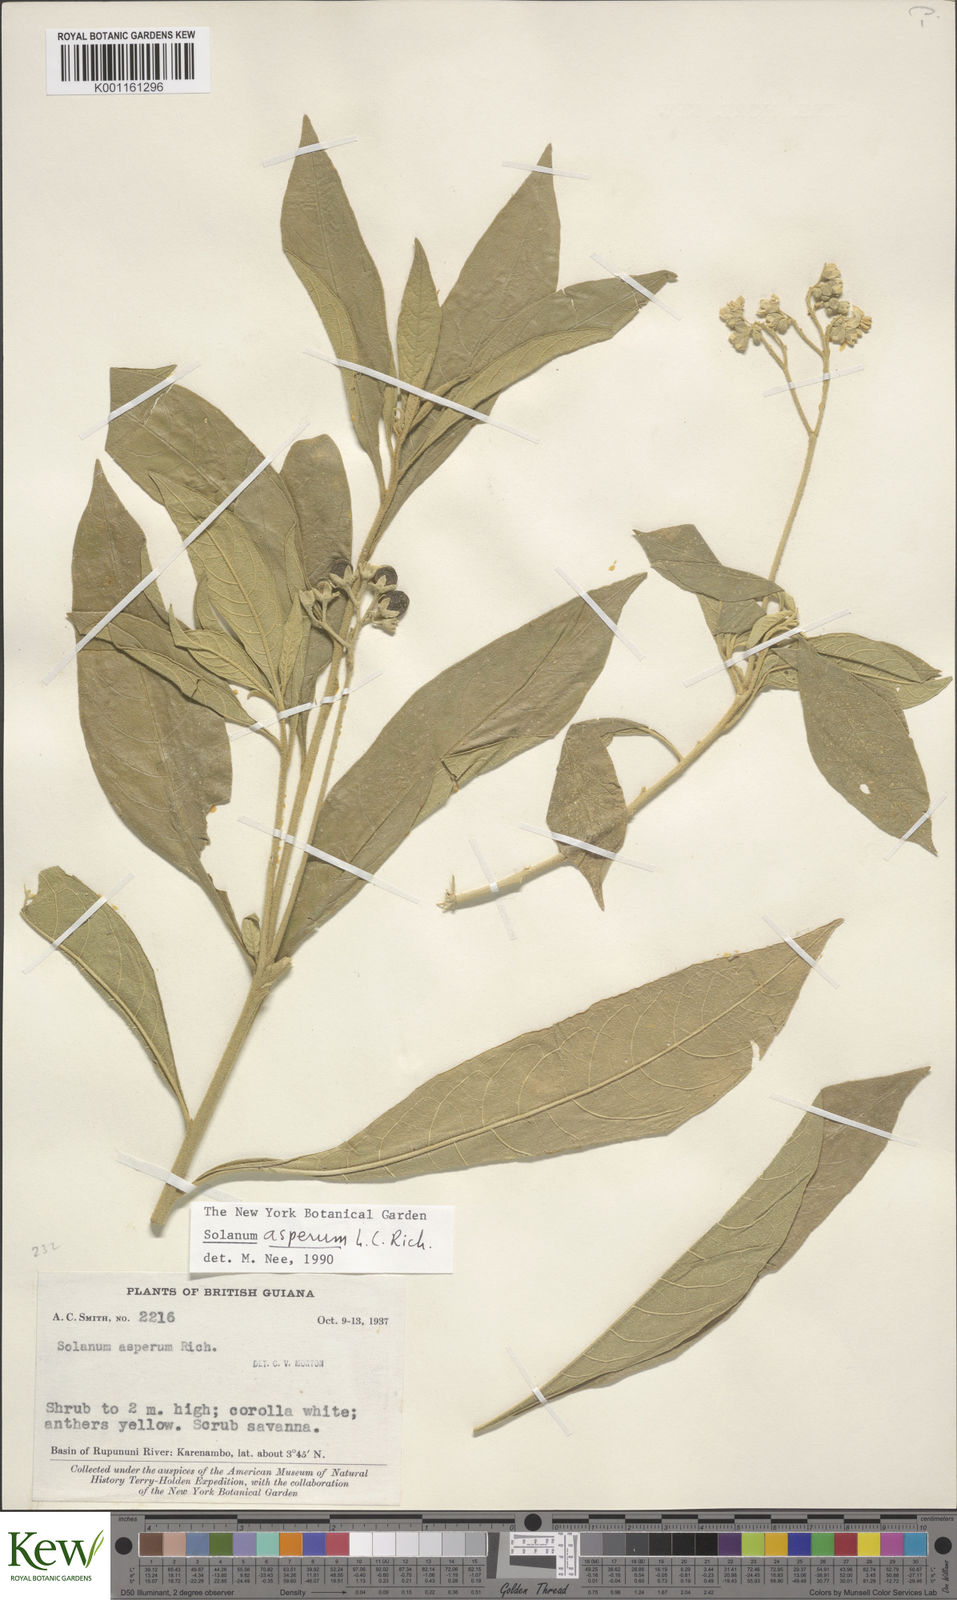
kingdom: Plantae
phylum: Tracheophyta
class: Magnoliopsida
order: Solanales
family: Solanaceae
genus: Solanum
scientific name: Solanum asperum
